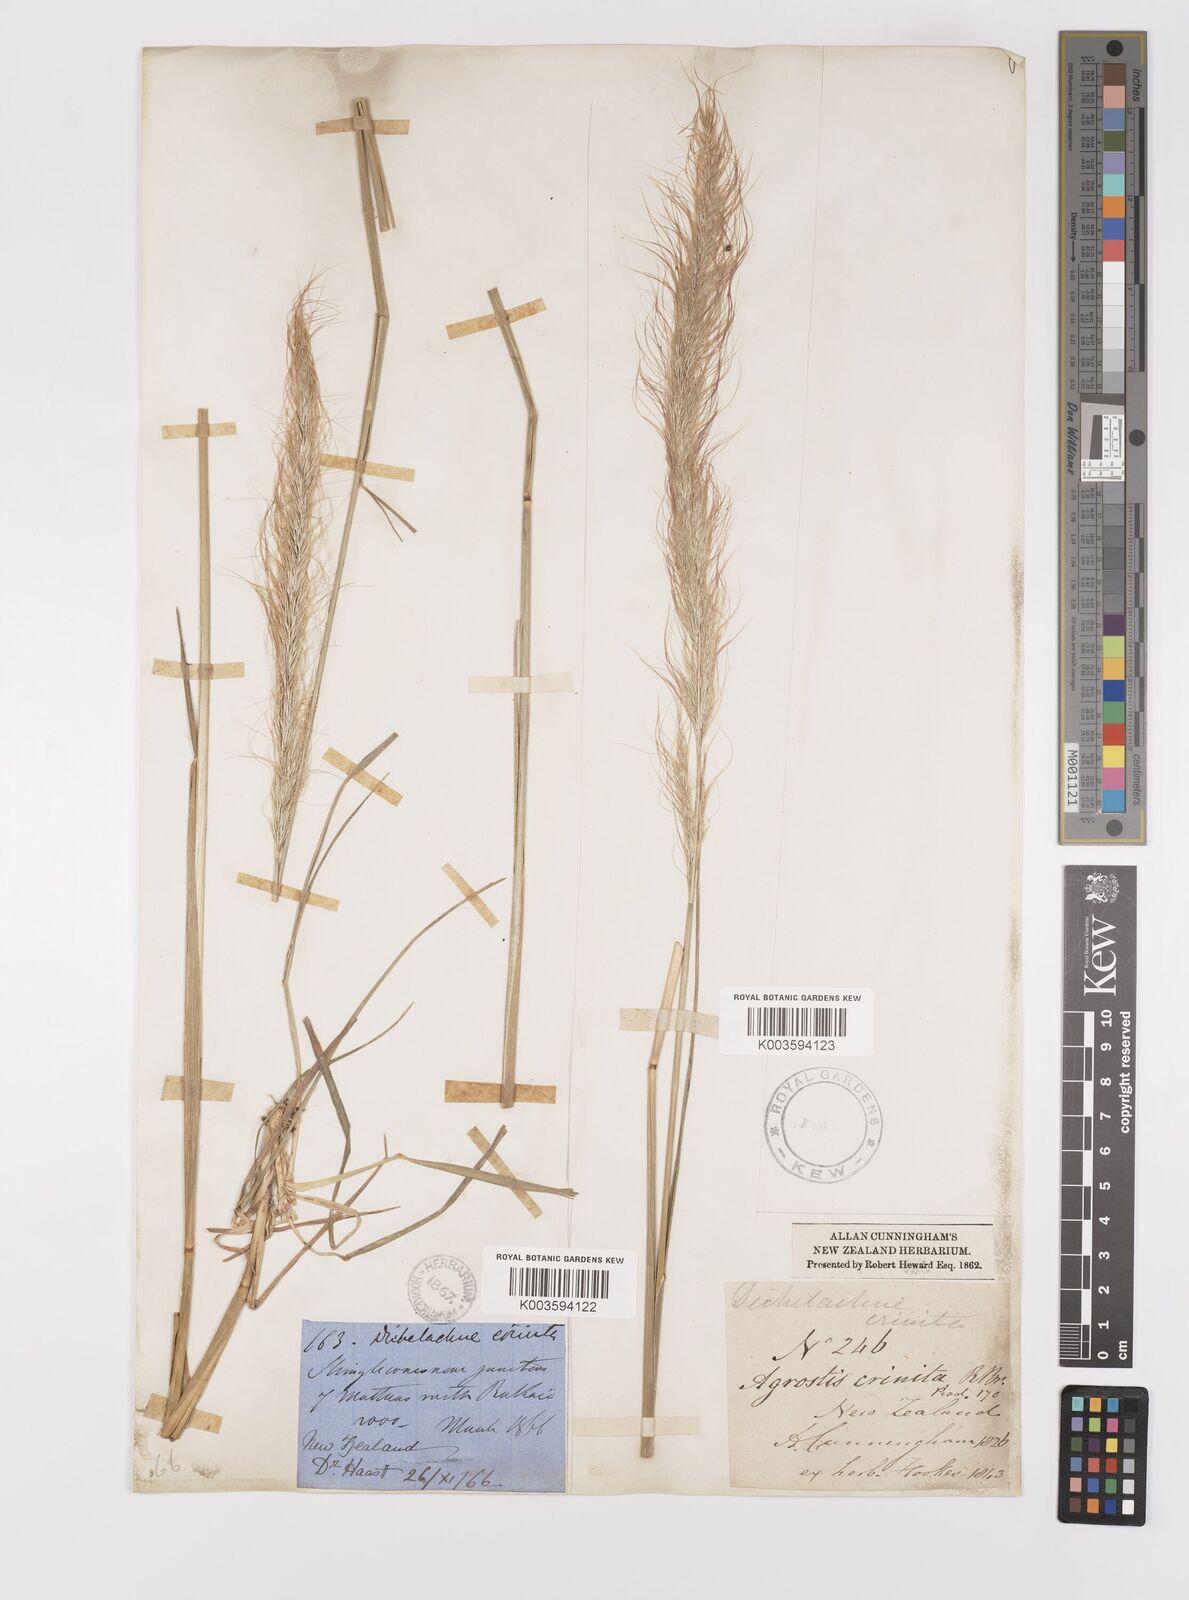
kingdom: Plantae
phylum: Tracheophyta
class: Liliopsida
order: Poales
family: Poaceae
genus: Dichelachne
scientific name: Dichelachne crinita
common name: Clovenfoot plumegrass
